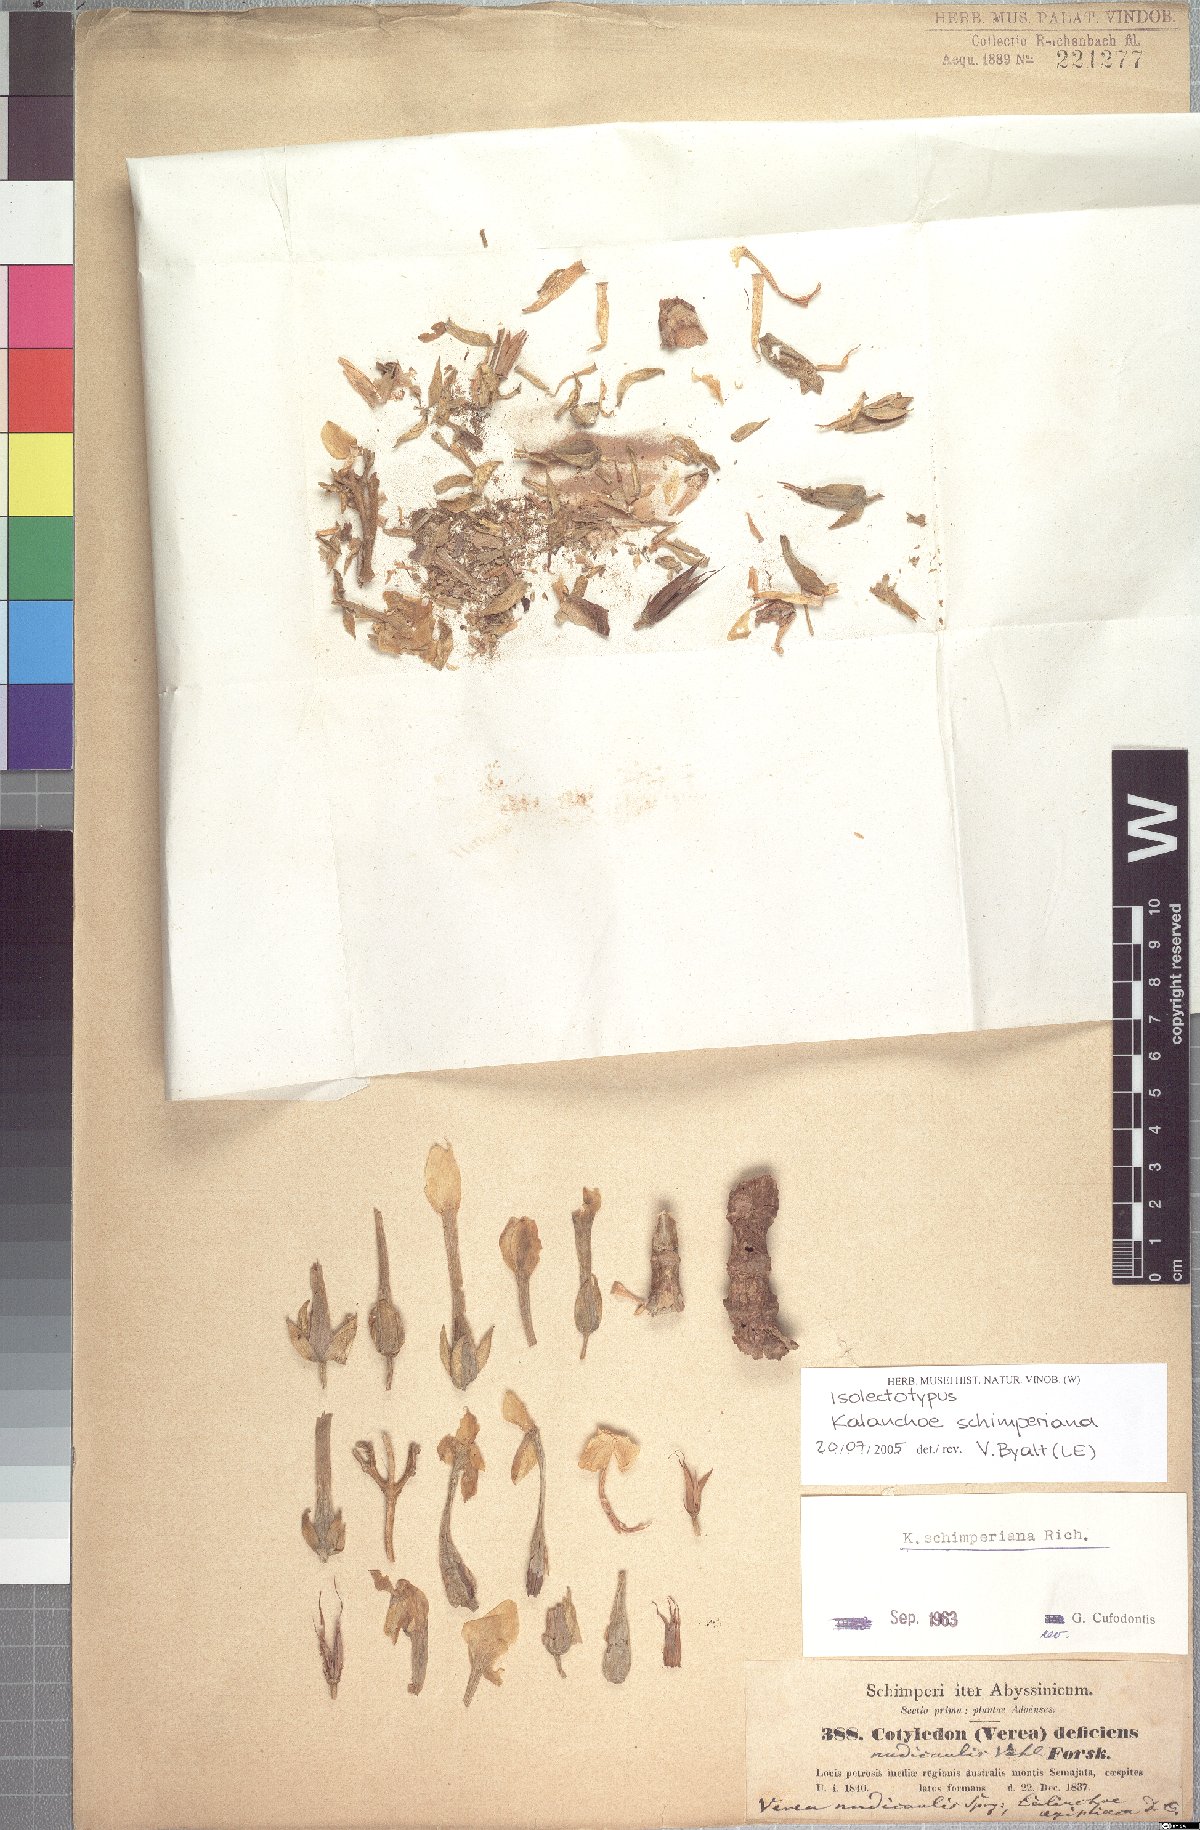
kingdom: Plantae
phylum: Tracheophyta
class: Magnoliopsida
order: Saxifragales
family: Crassulaceae
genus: Kalanchoe
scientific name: Kalanchoe schimperiana
